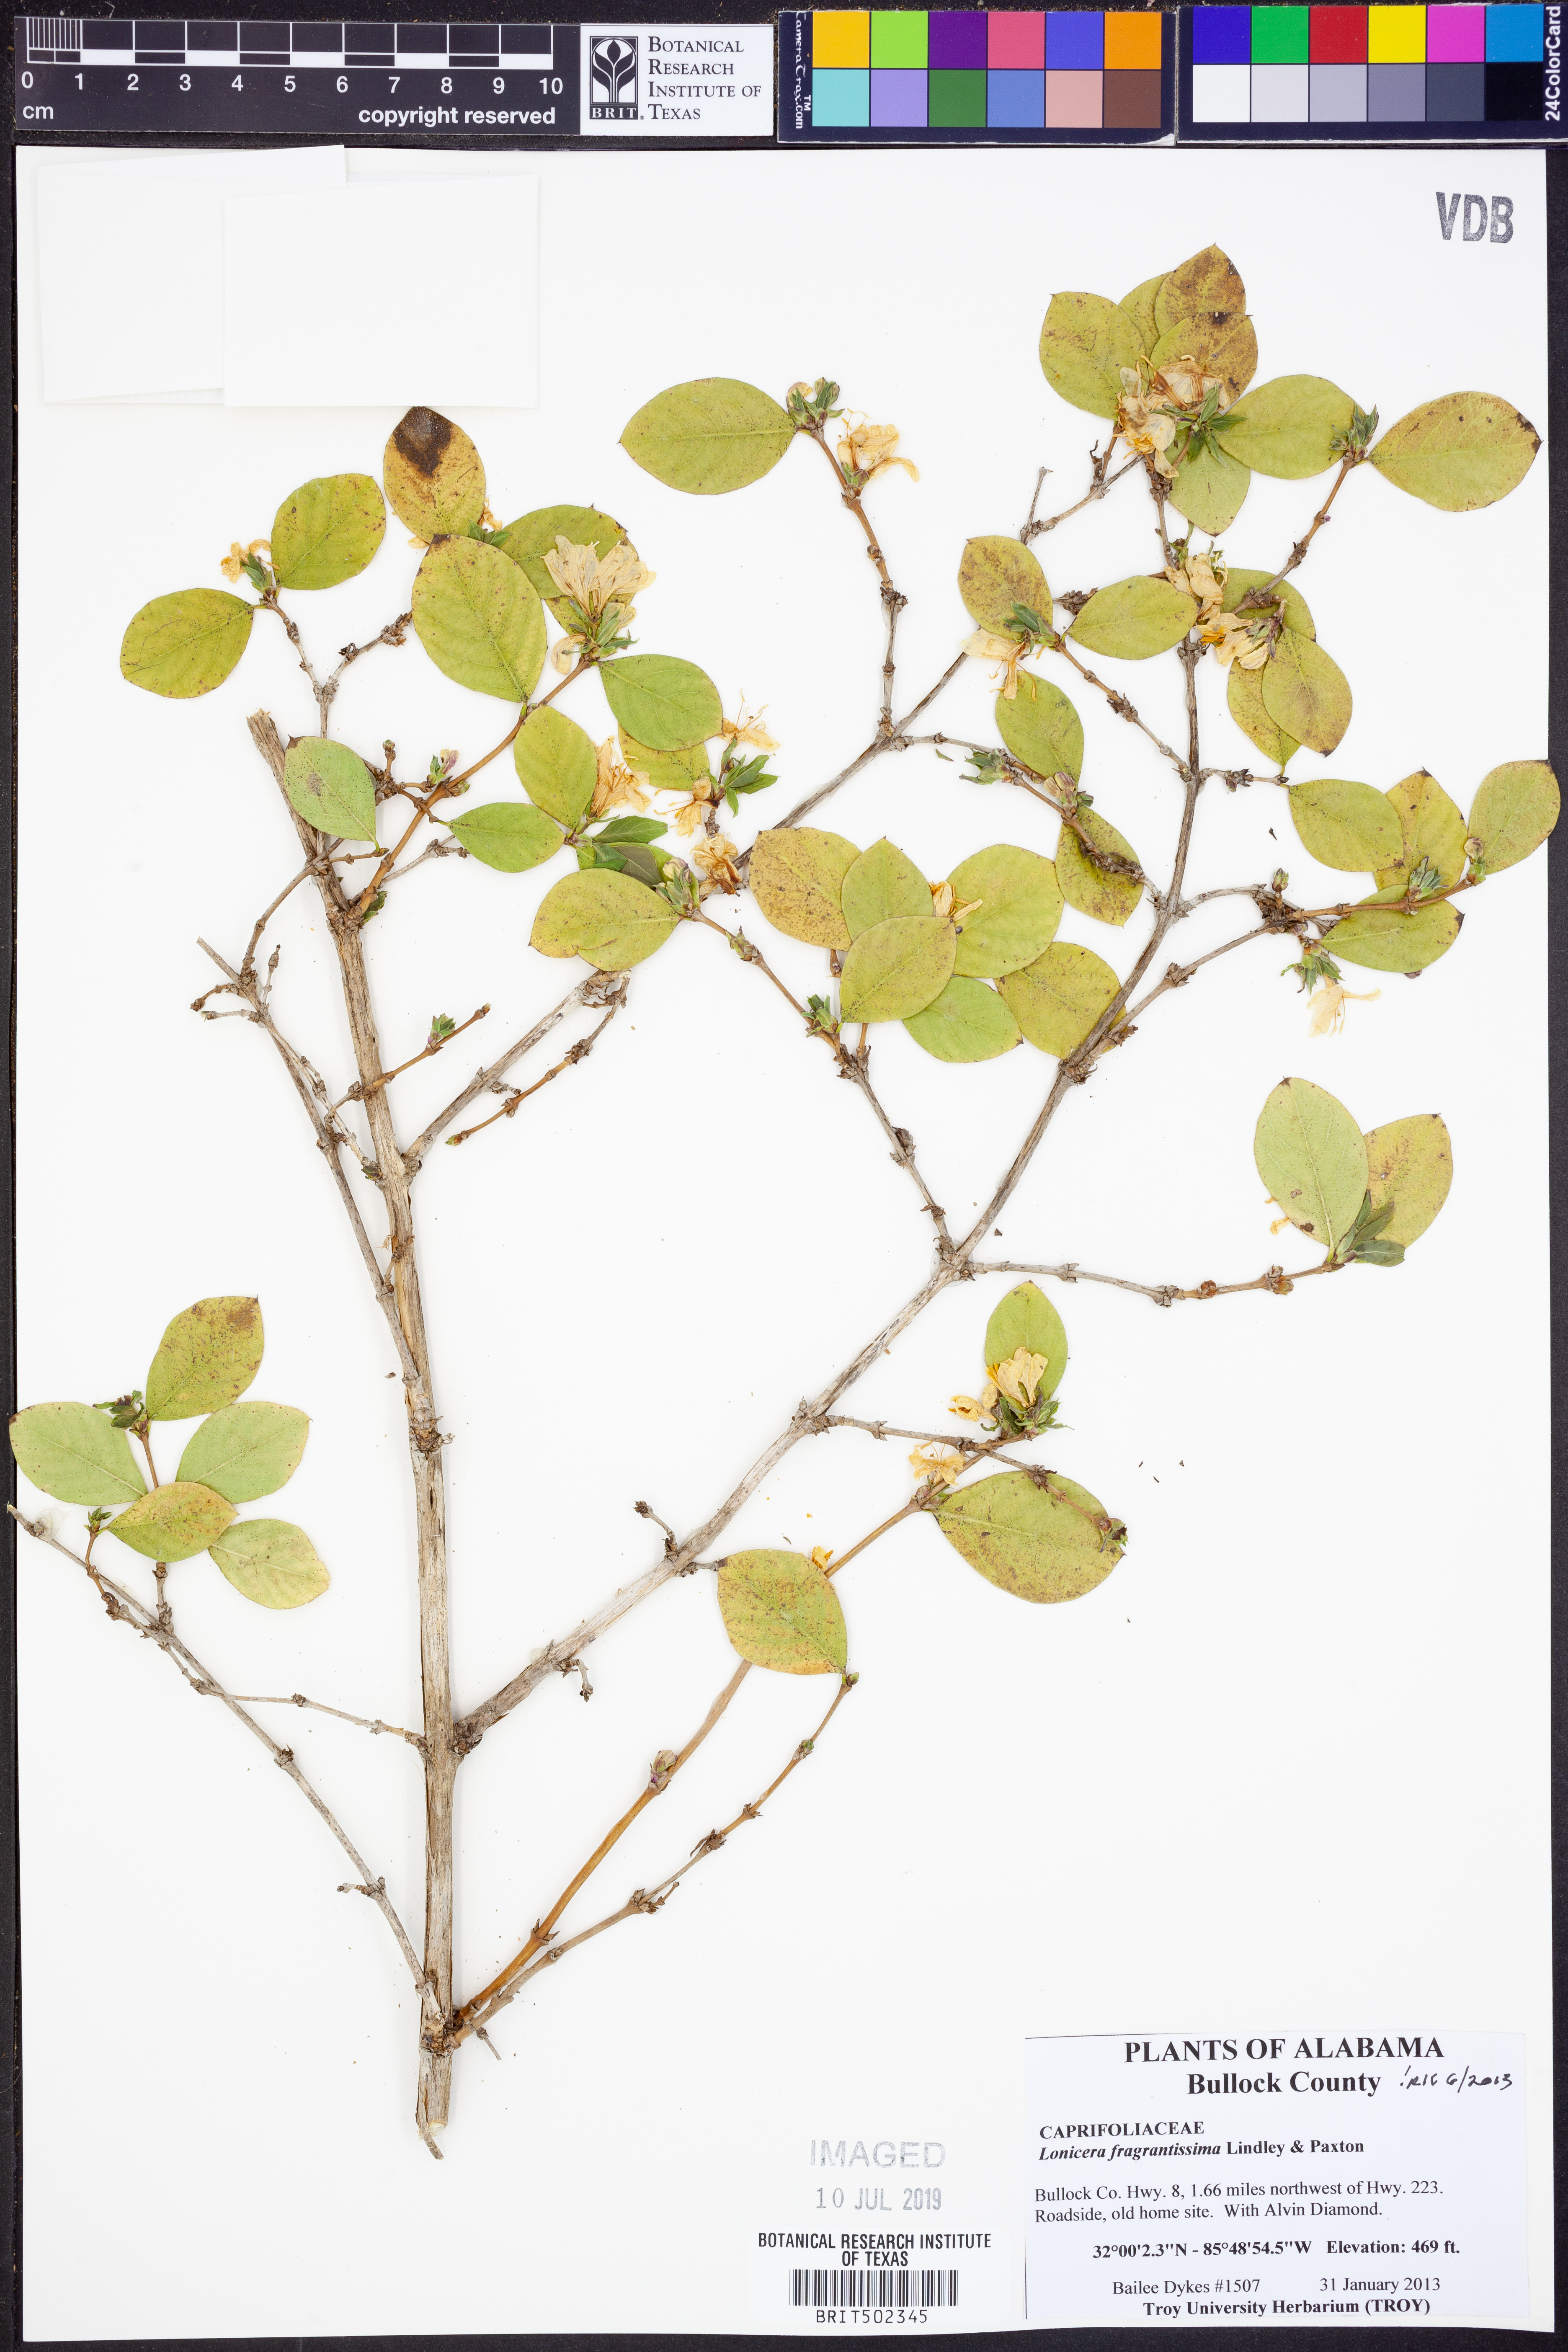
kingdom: Plantae
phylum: Tracheophyta
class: Magnoliopsida
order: Dipsacales
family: Caprifoliaceae
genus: Lonicera
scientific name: Lonicera fragrantissima
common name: Fragrant honeysuckle
